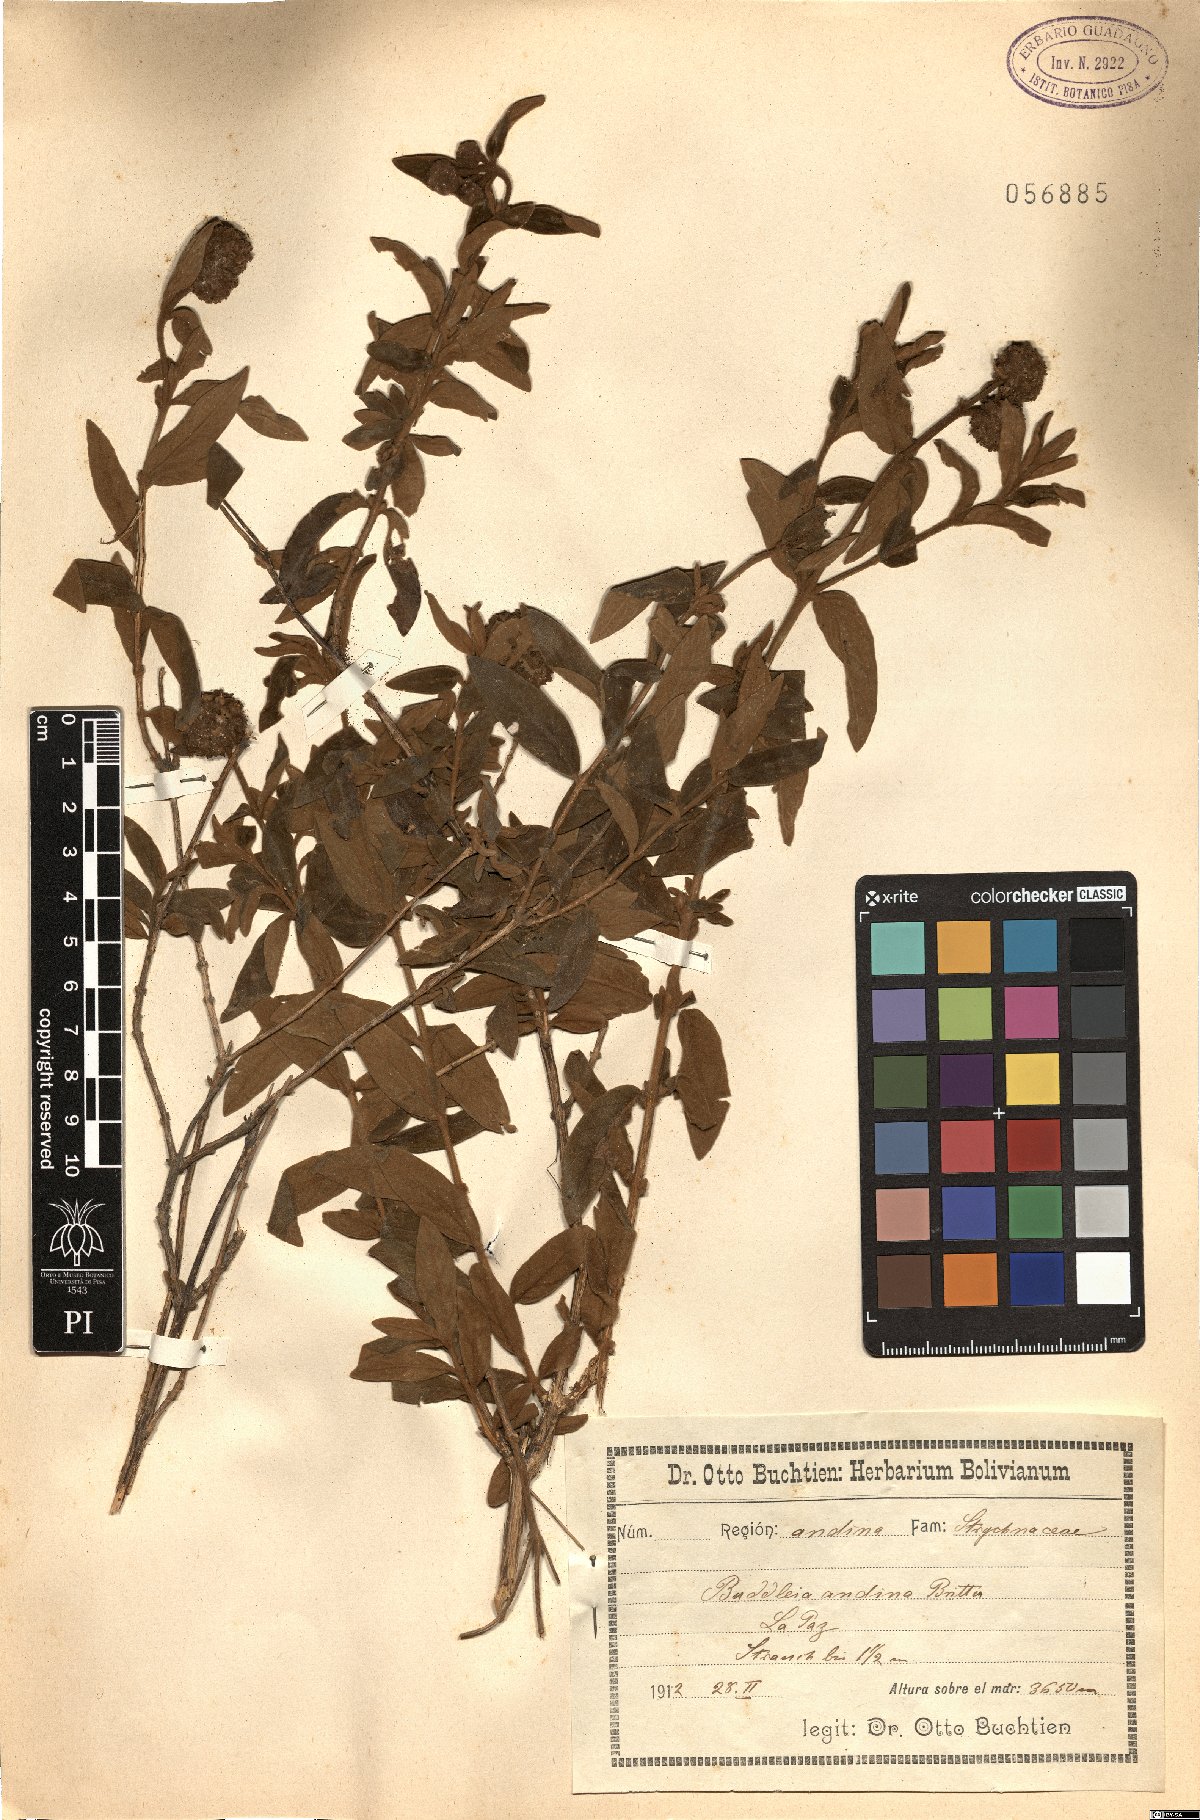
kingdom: Plantae
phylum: Tracheophyta
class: Magnoliopsida
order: Lamiales
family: Scrophulariaceae
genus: Buddleja
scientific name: Buddleja
